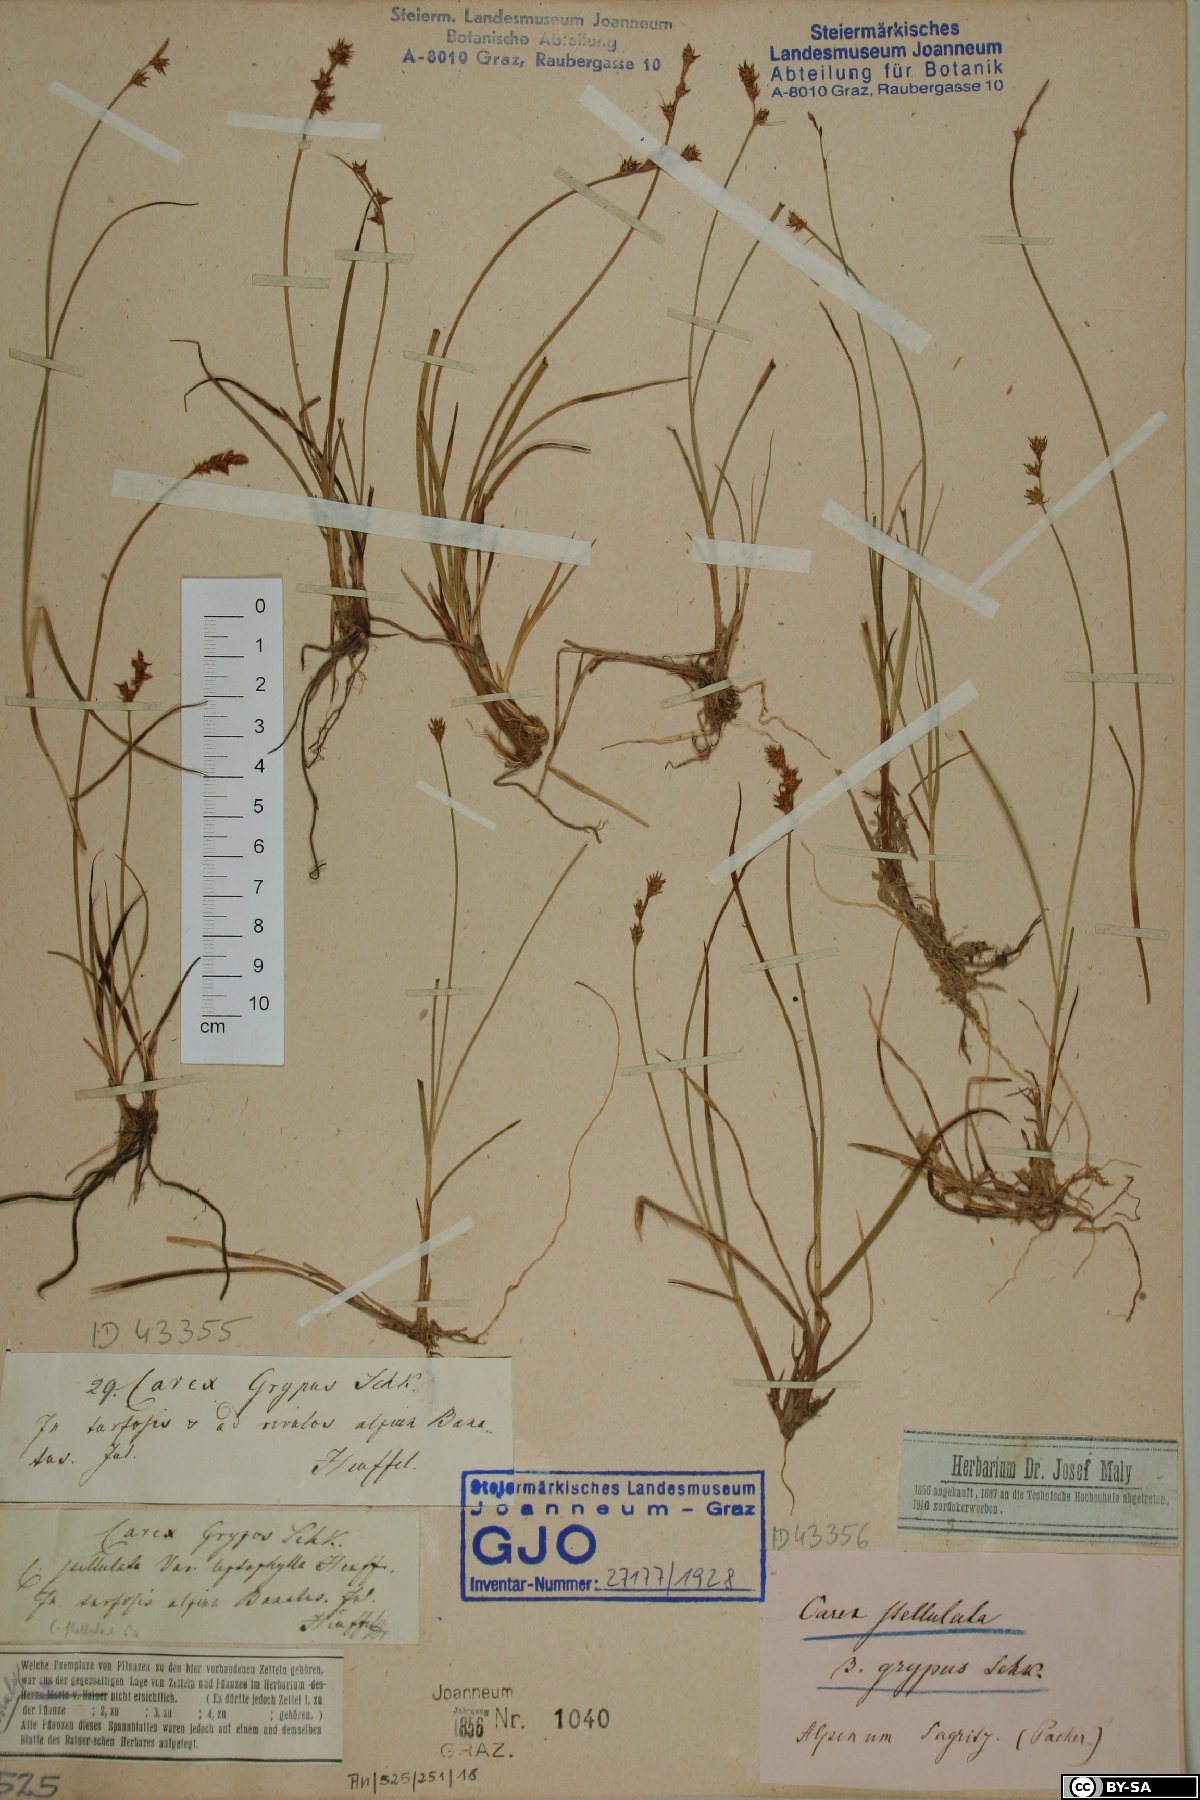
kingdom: Plantae
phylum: Tracheophyta
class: Liliopsida
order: Poales
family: Cyperaceae
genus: Carex
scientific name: Carex echinata
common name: Star sedge
